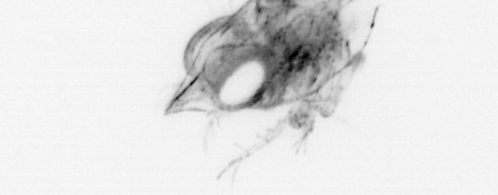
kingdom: Animalia
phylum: Arthropoda
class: Malacostraca
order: Decapoda
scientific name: Decapoda
